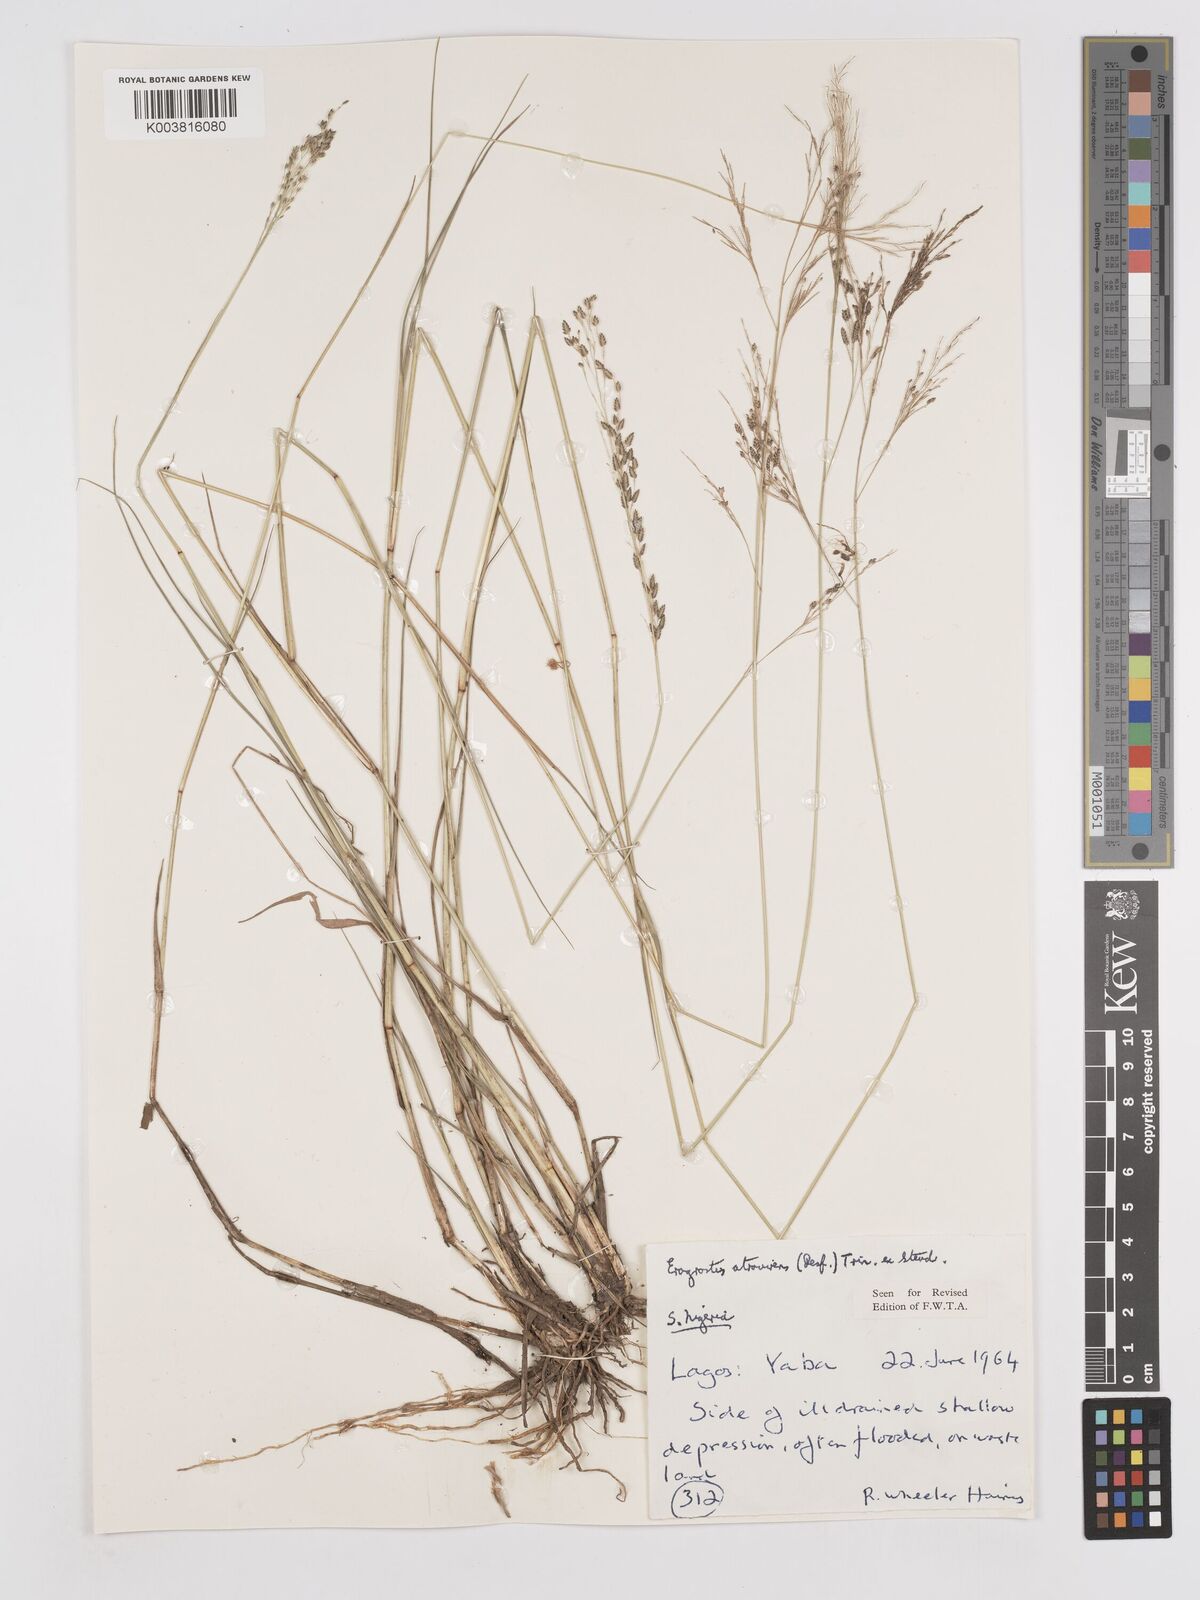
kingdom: Plantae
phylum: Tracheophyta
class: Liliopsida
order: Poales
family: Poaceae
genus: Eragrostis
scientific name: Eragrostis atrovirens
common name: Thalia lovegrass
